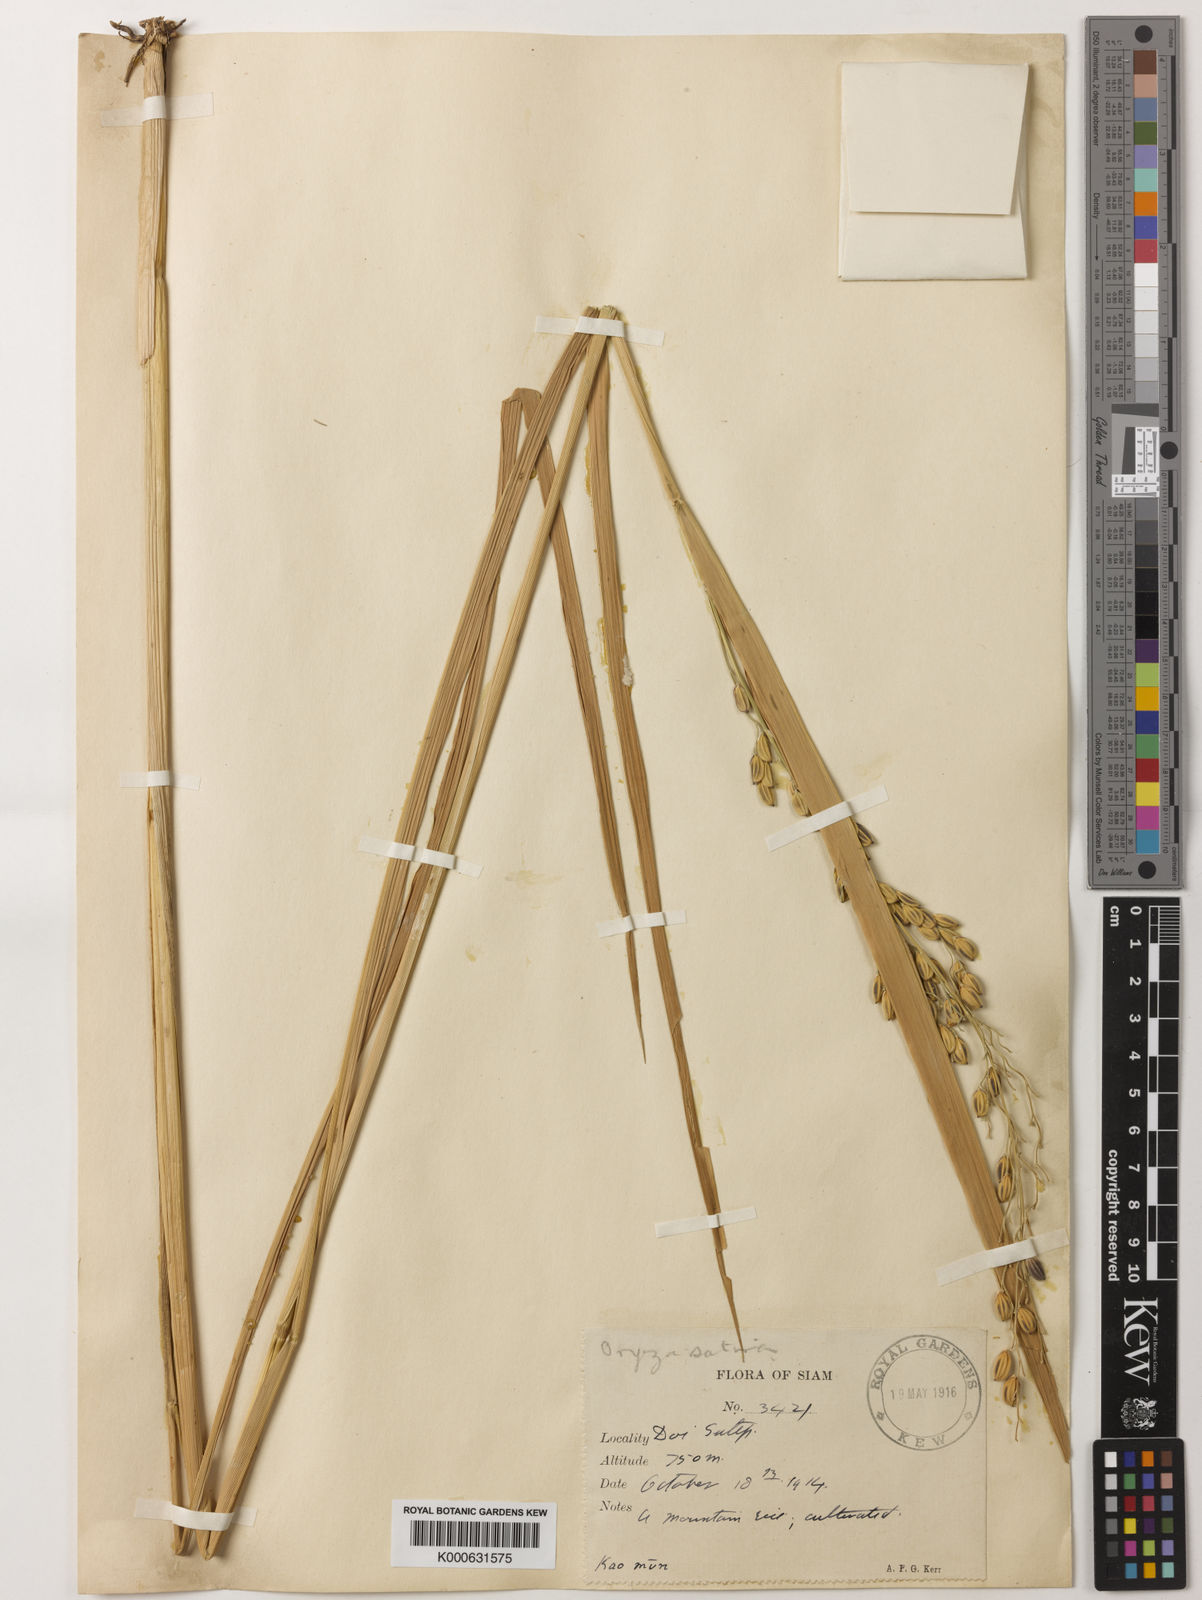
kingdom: Plantae
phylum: Tracheophyta
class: Liliopsida
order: Poales
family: Poaceae
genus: Oryza
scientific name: Oryza sativa
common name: Rice
